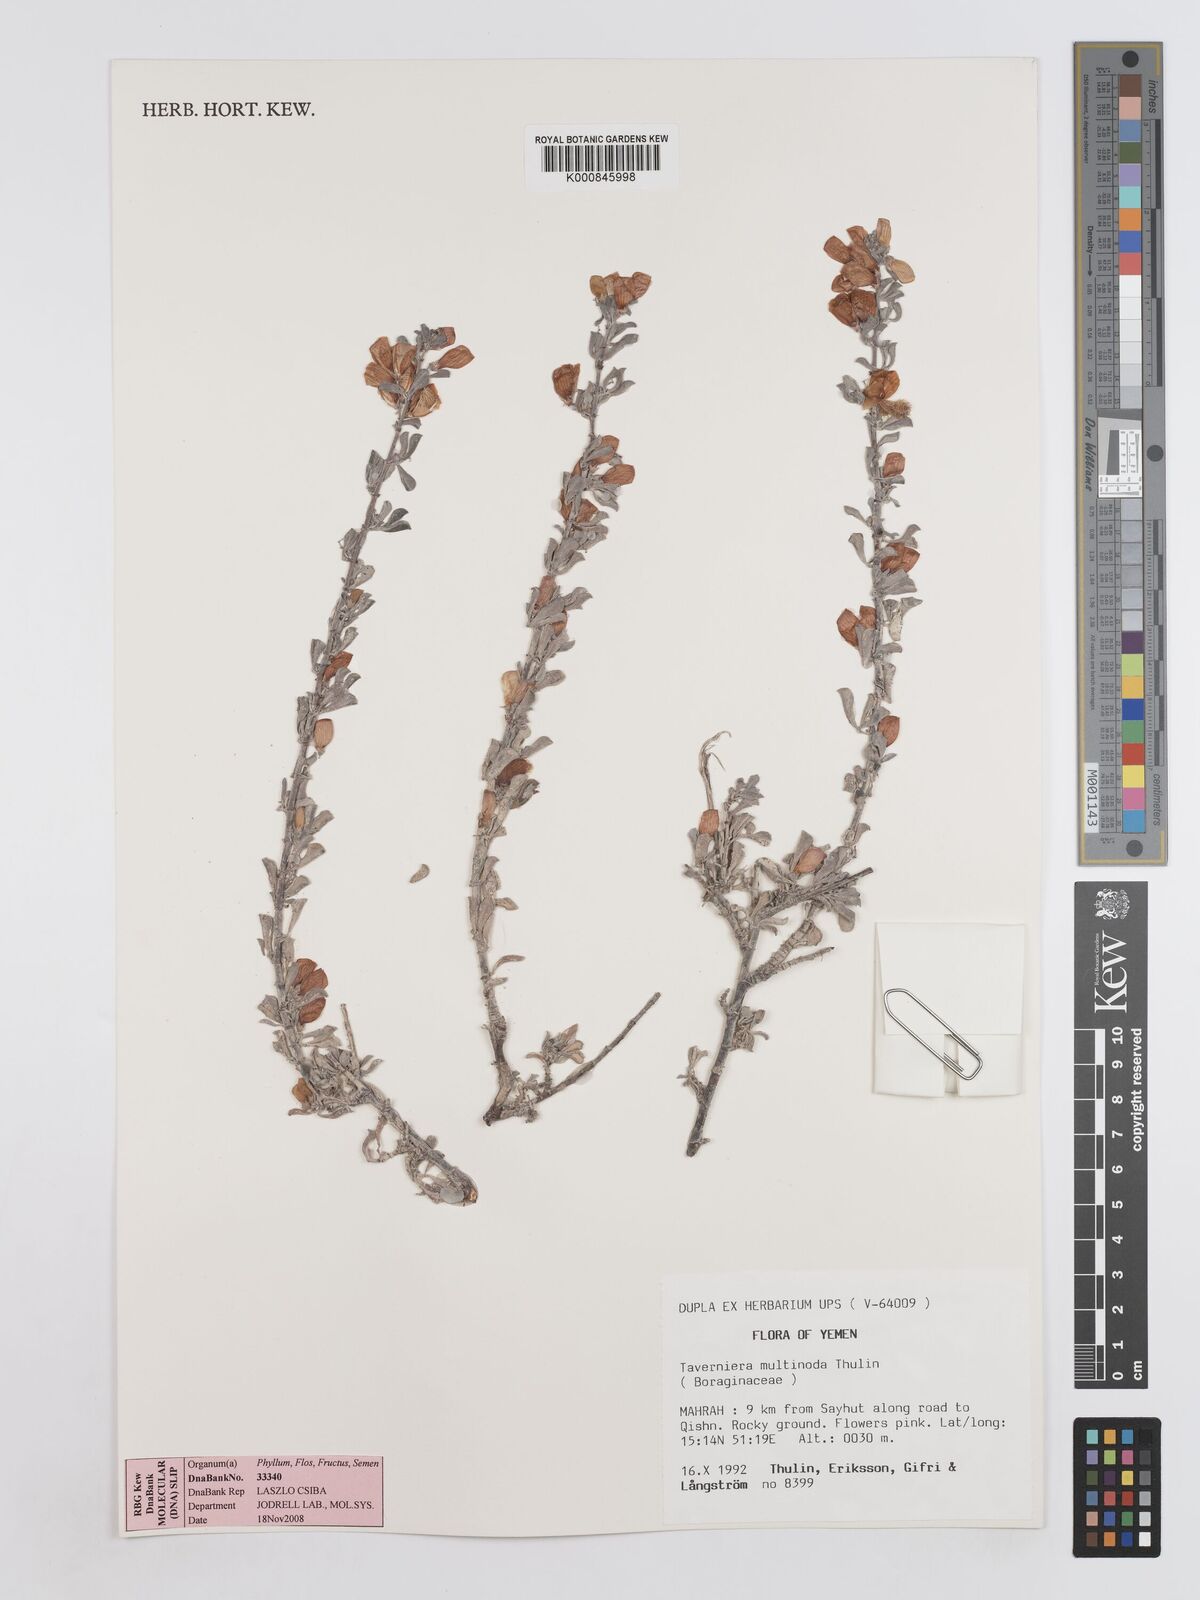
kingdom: Plantae
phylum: Tracheophyta
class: Magnoliopsida
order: Fabales
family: Fabaceae
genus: Taverniera
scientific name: Taverniera multinoda
